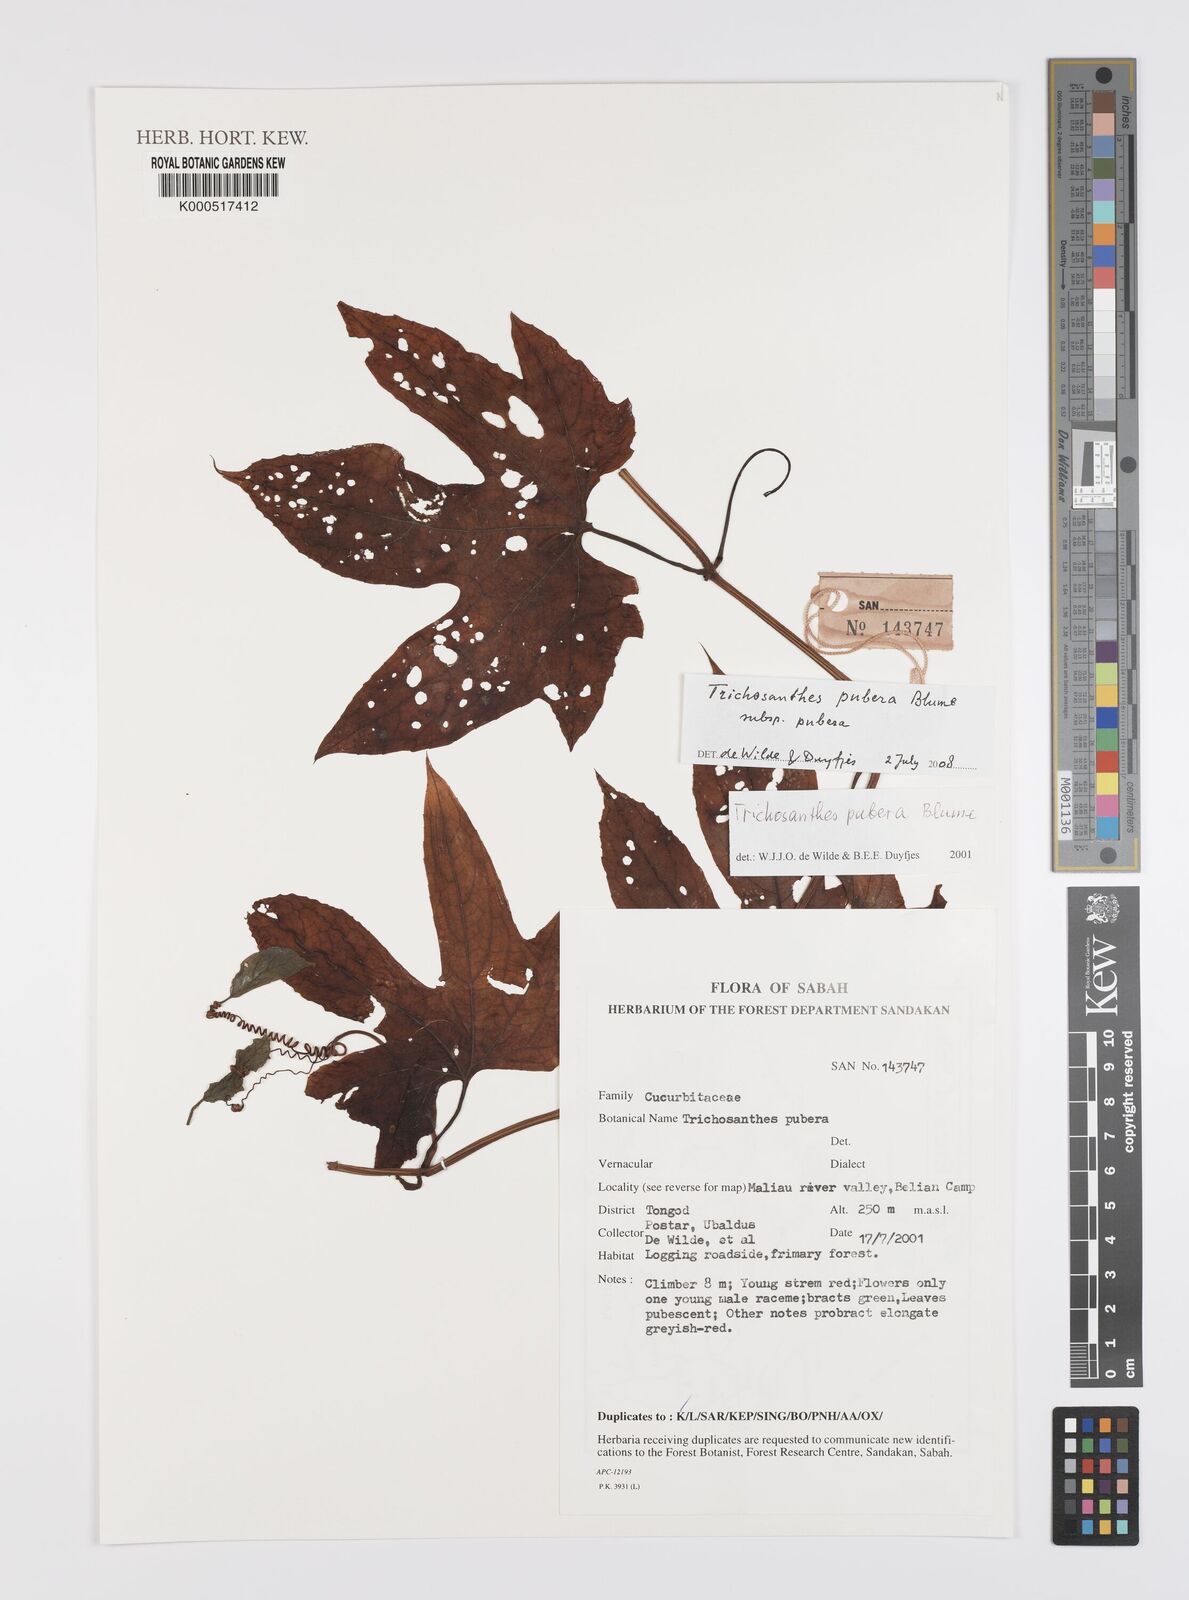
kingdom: Plantae
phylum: Tracheophyta
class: Magnoliopsida
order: Cucurbitales
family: Cucurbitaceae
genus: Trichosanthes
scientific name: Trichosanthes pubera
